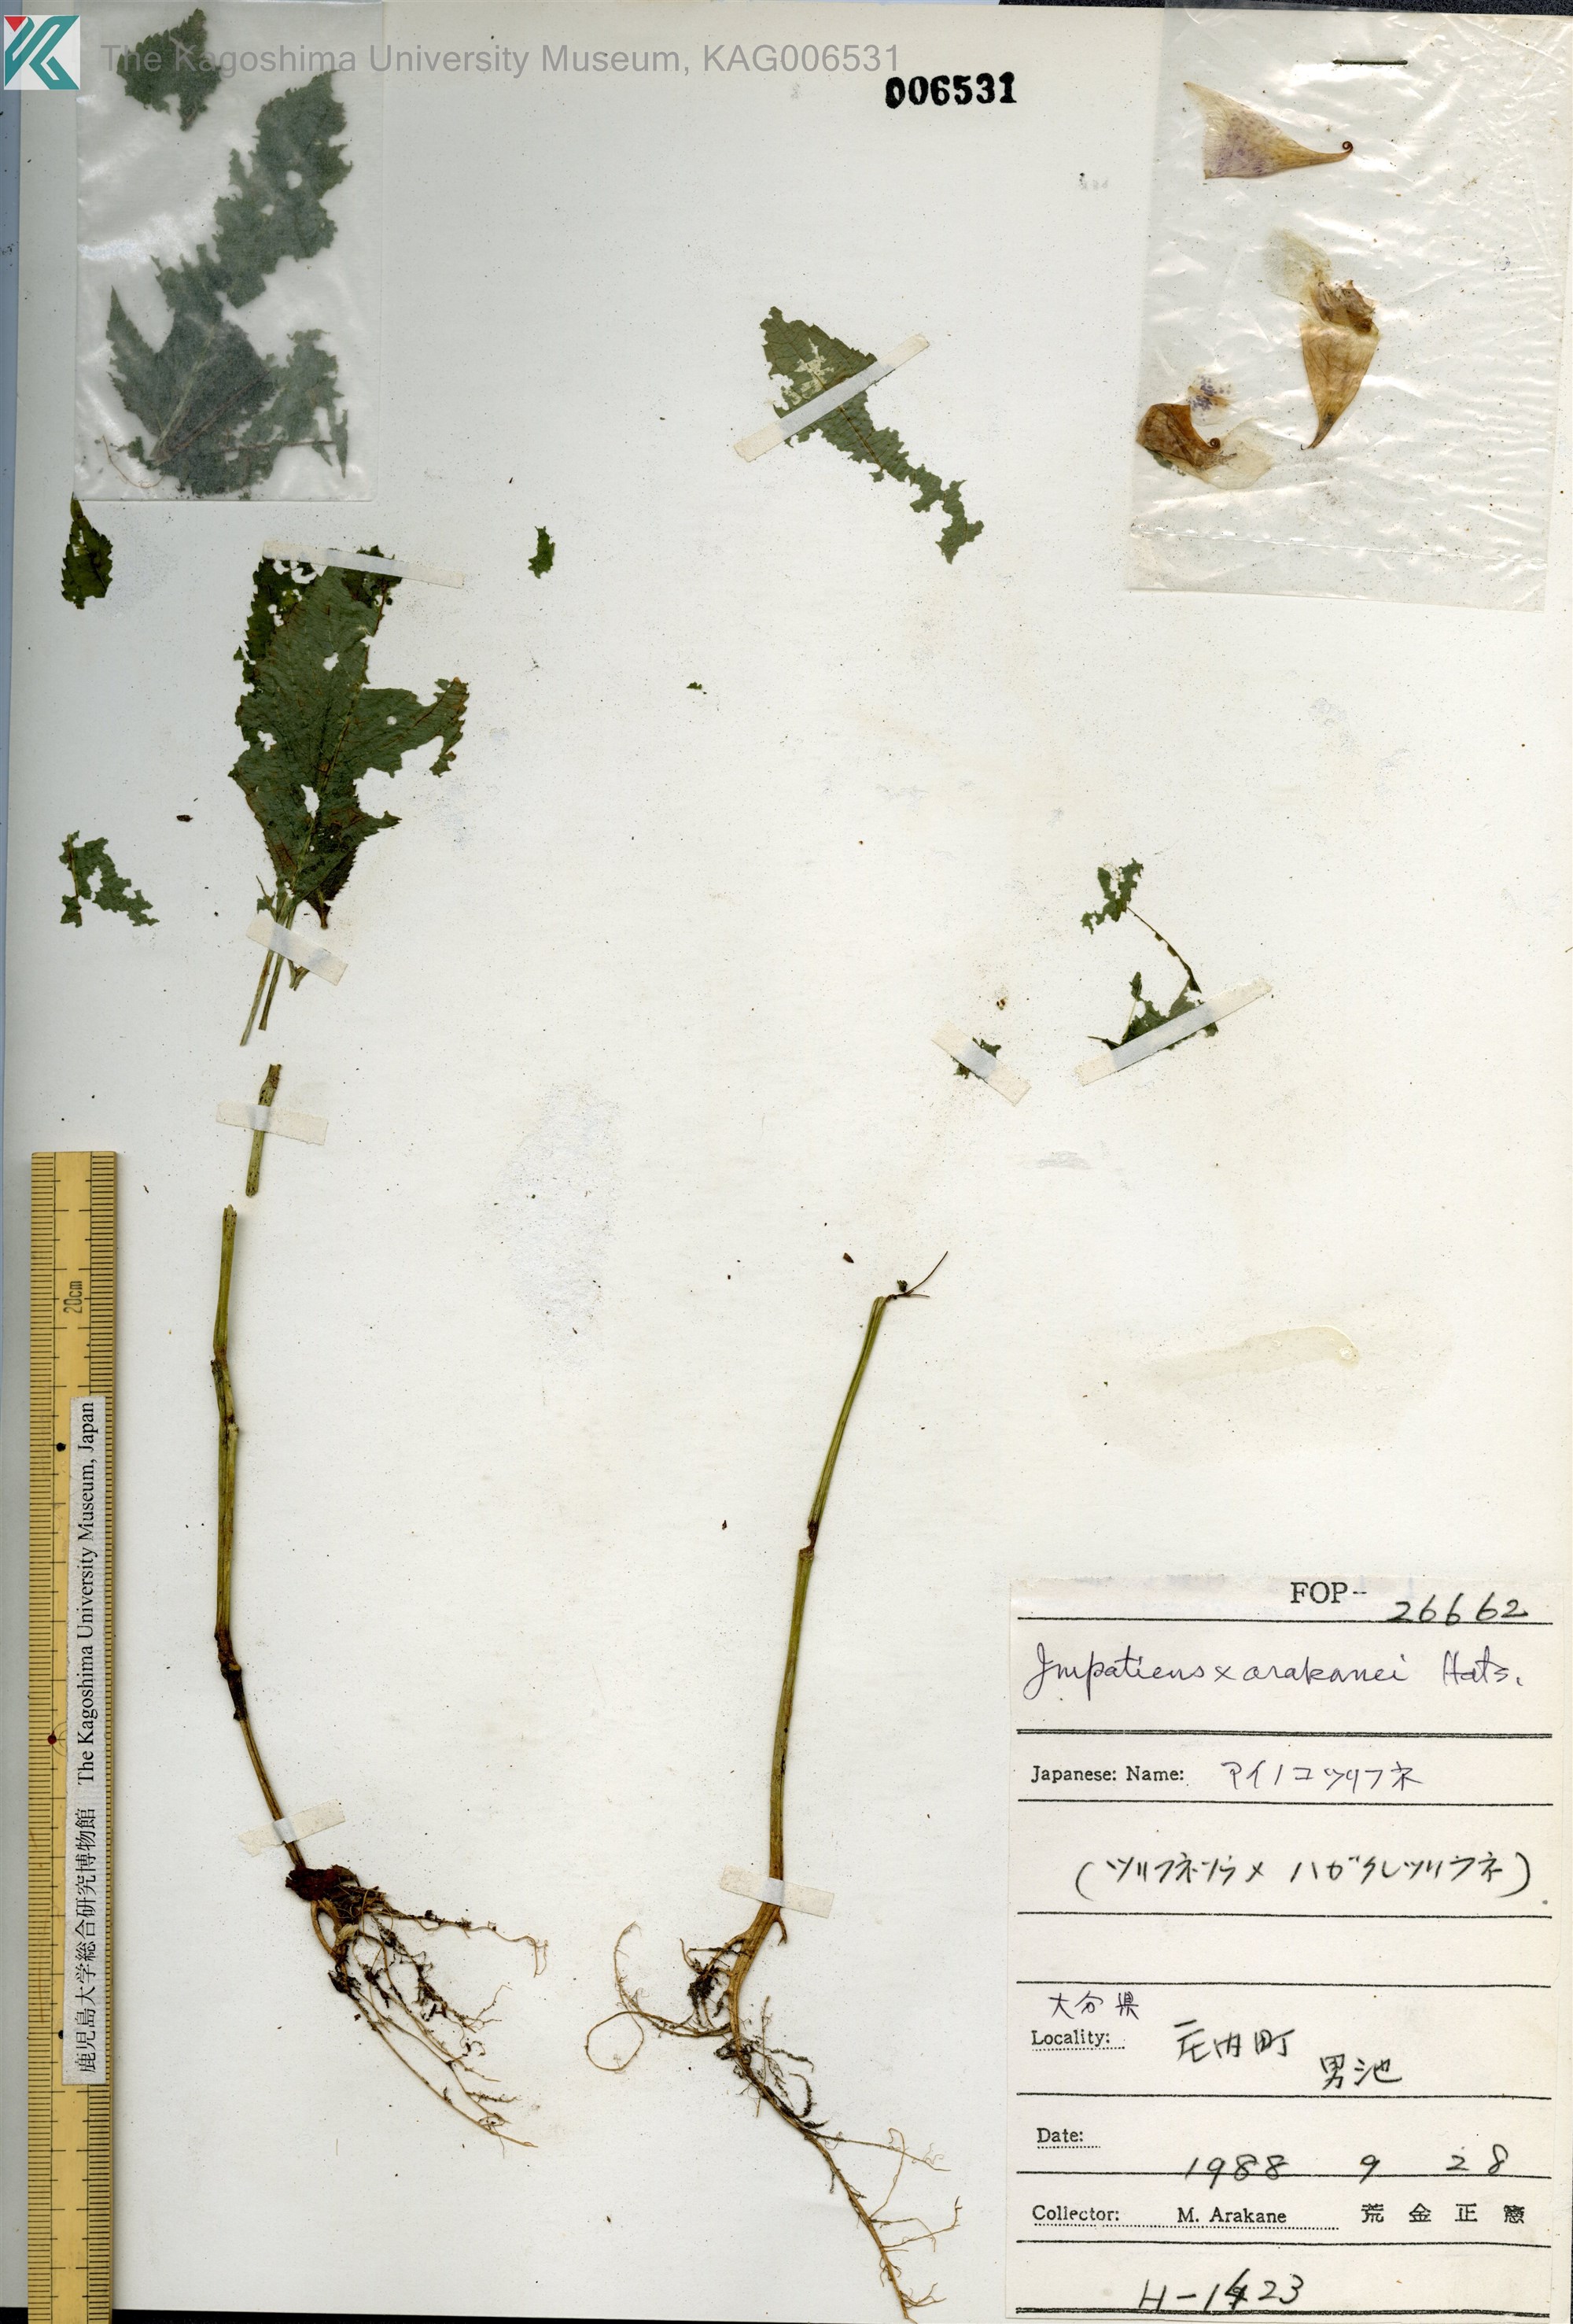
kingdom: Plantae
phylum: Tracheophyta
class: Magnoliopsida
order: Ericales
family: Balsaminaceae
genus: Impatiens
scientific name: Impatiens
